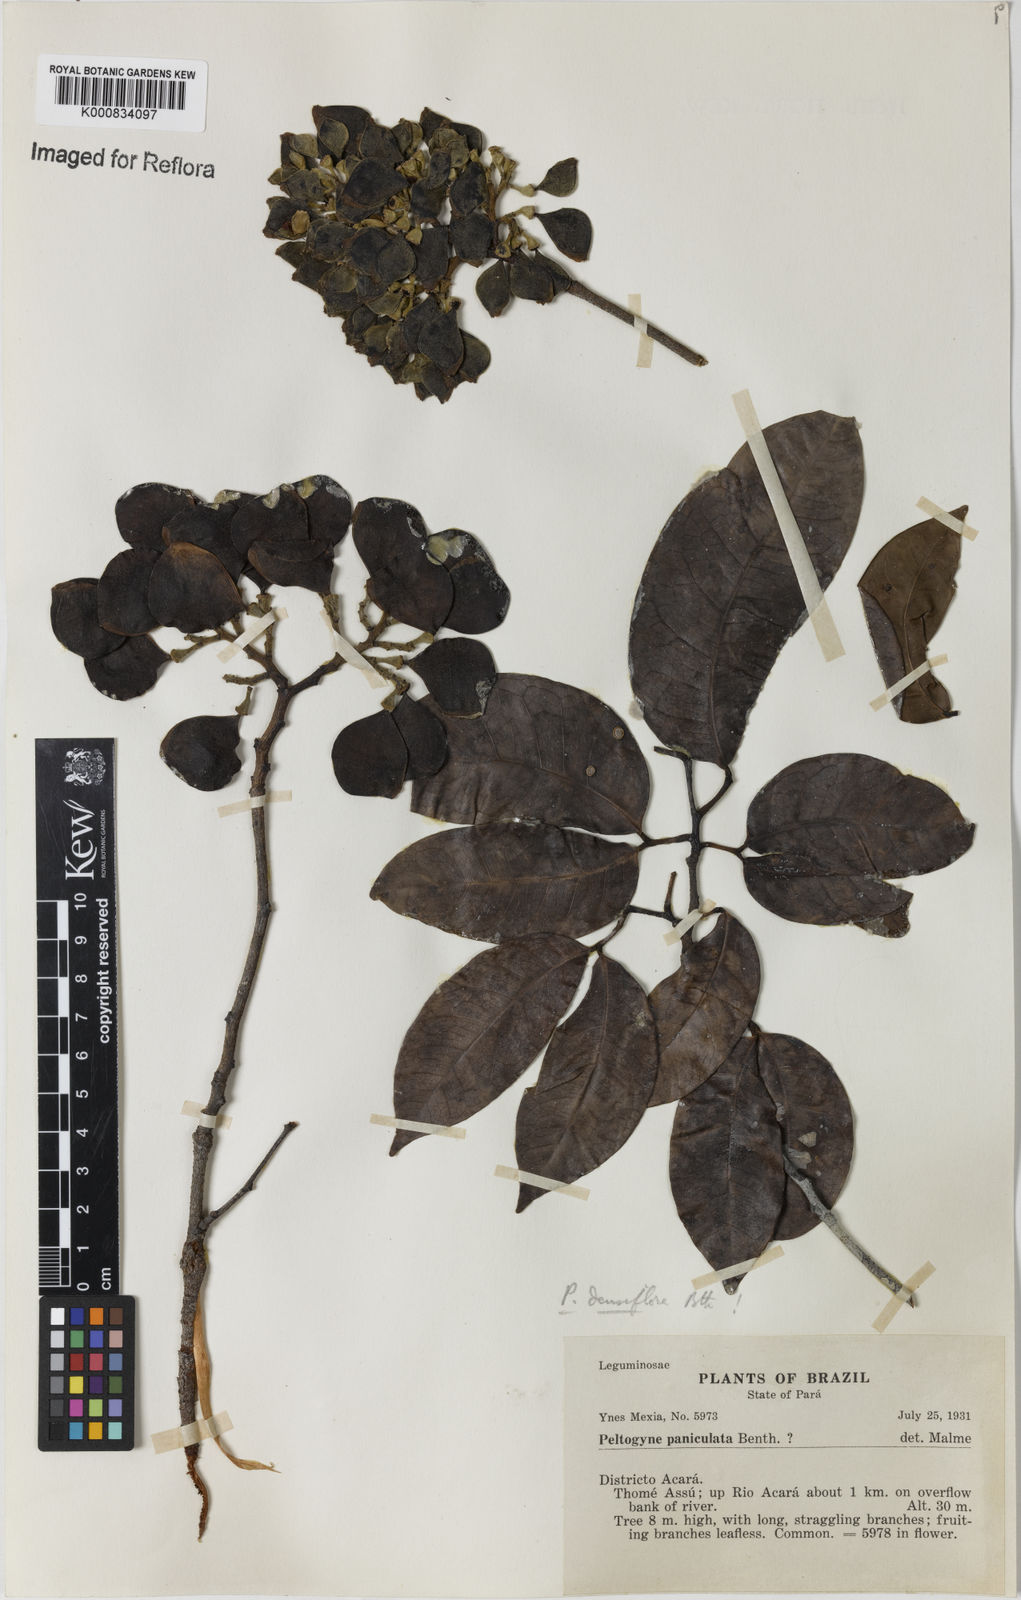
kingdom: Plantae
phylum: Tracheophyta
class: Magnoliopsida
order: Fabales
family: Fabaceae
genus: Peltogyne
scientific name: Peltogyne venosa
